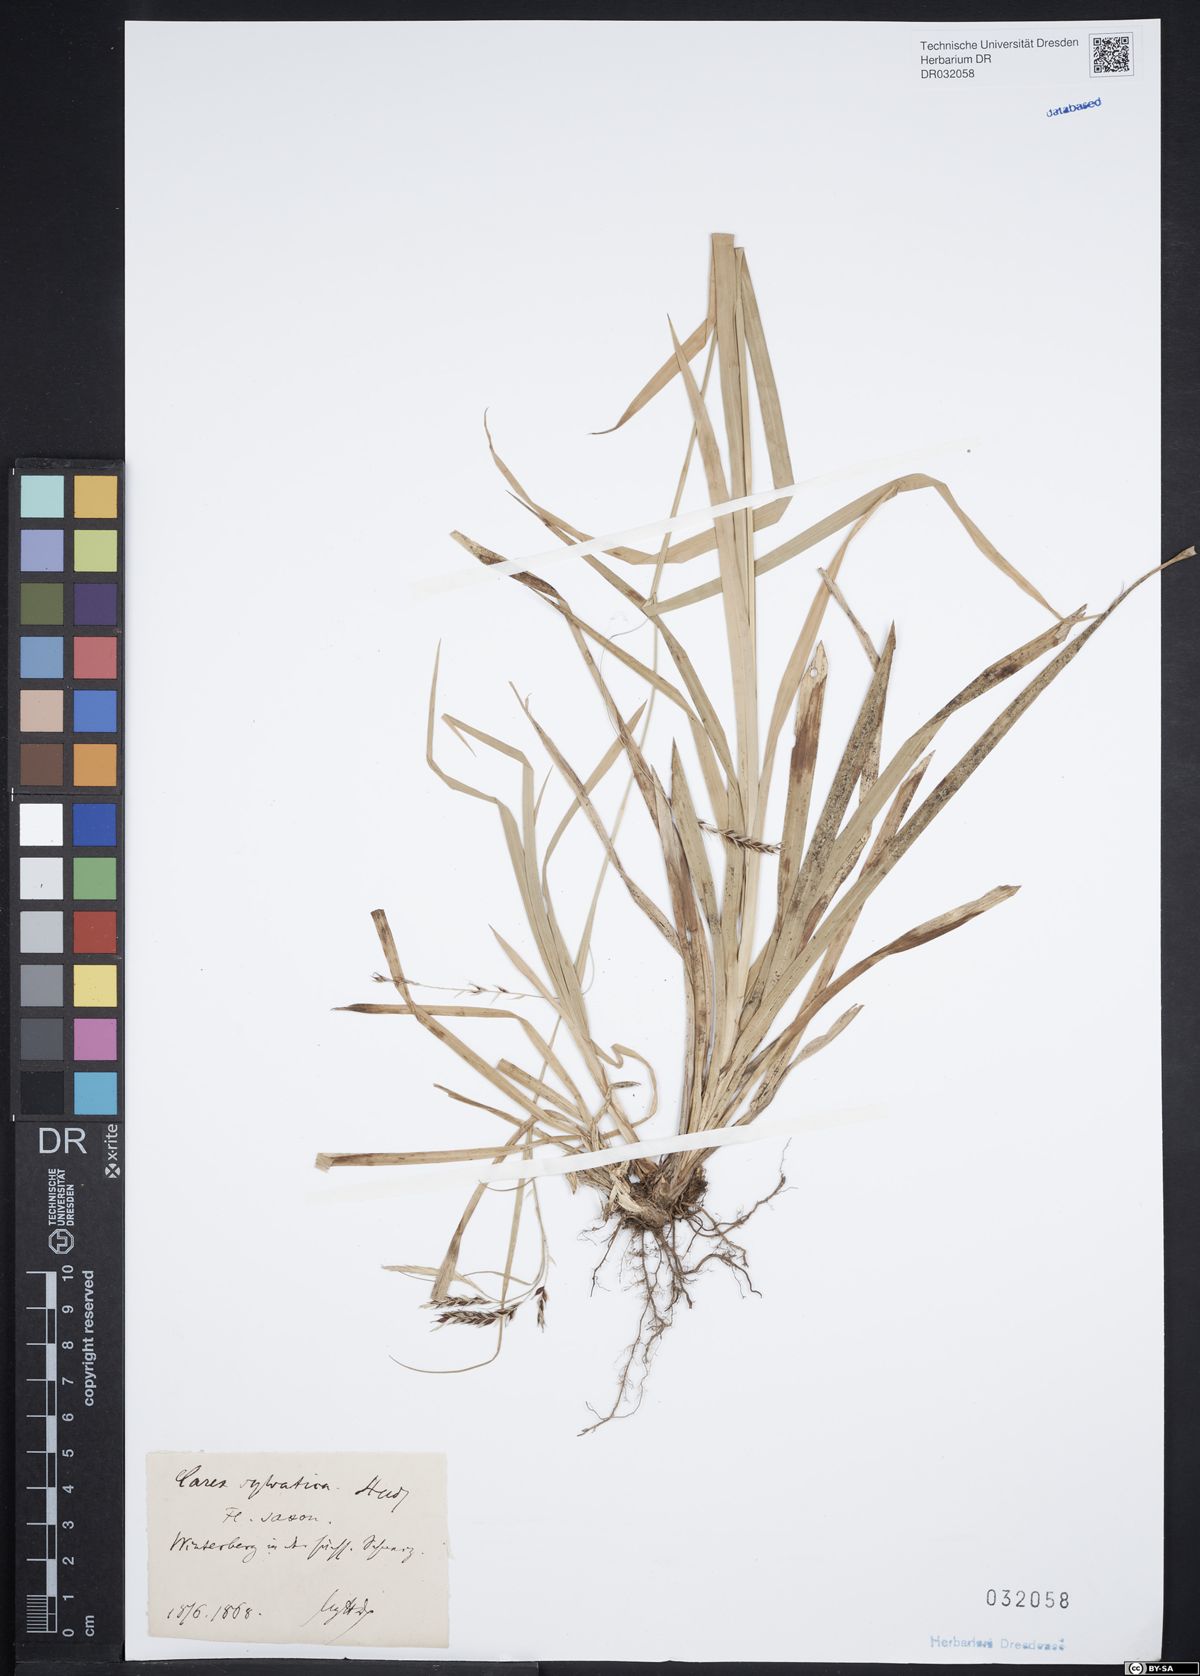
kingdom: Plantae
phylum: Tracheophyta
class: Liliopsida
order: Poales
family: Cyperaceae
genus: Carex
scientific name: Carex sylvatica
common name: Wood-sedge
